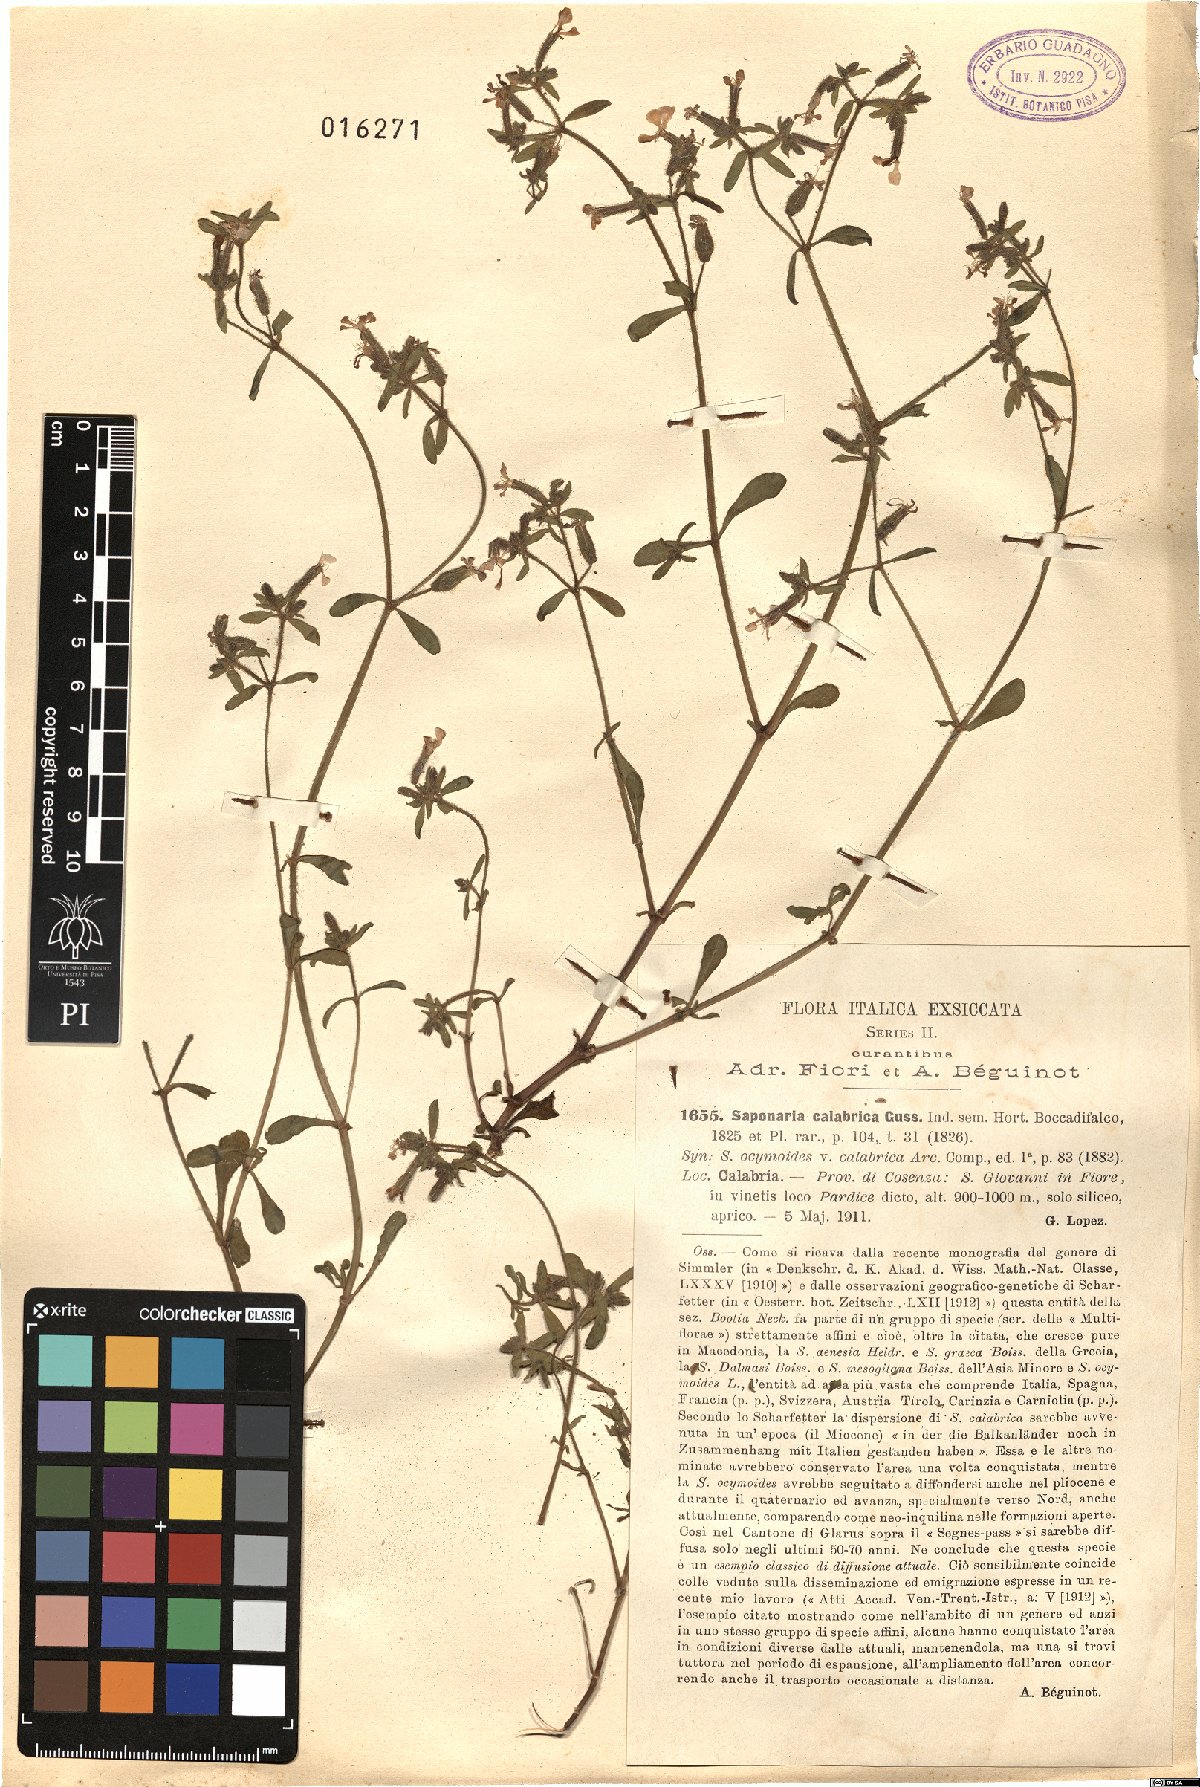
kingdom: Plantae
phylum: Tracheophyta
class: Magnoliopsida
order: Caryophyllales
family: Caryophyllaceae
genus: Saponaria
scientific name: Saponaria calabrica
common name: Adriatic soapwort
